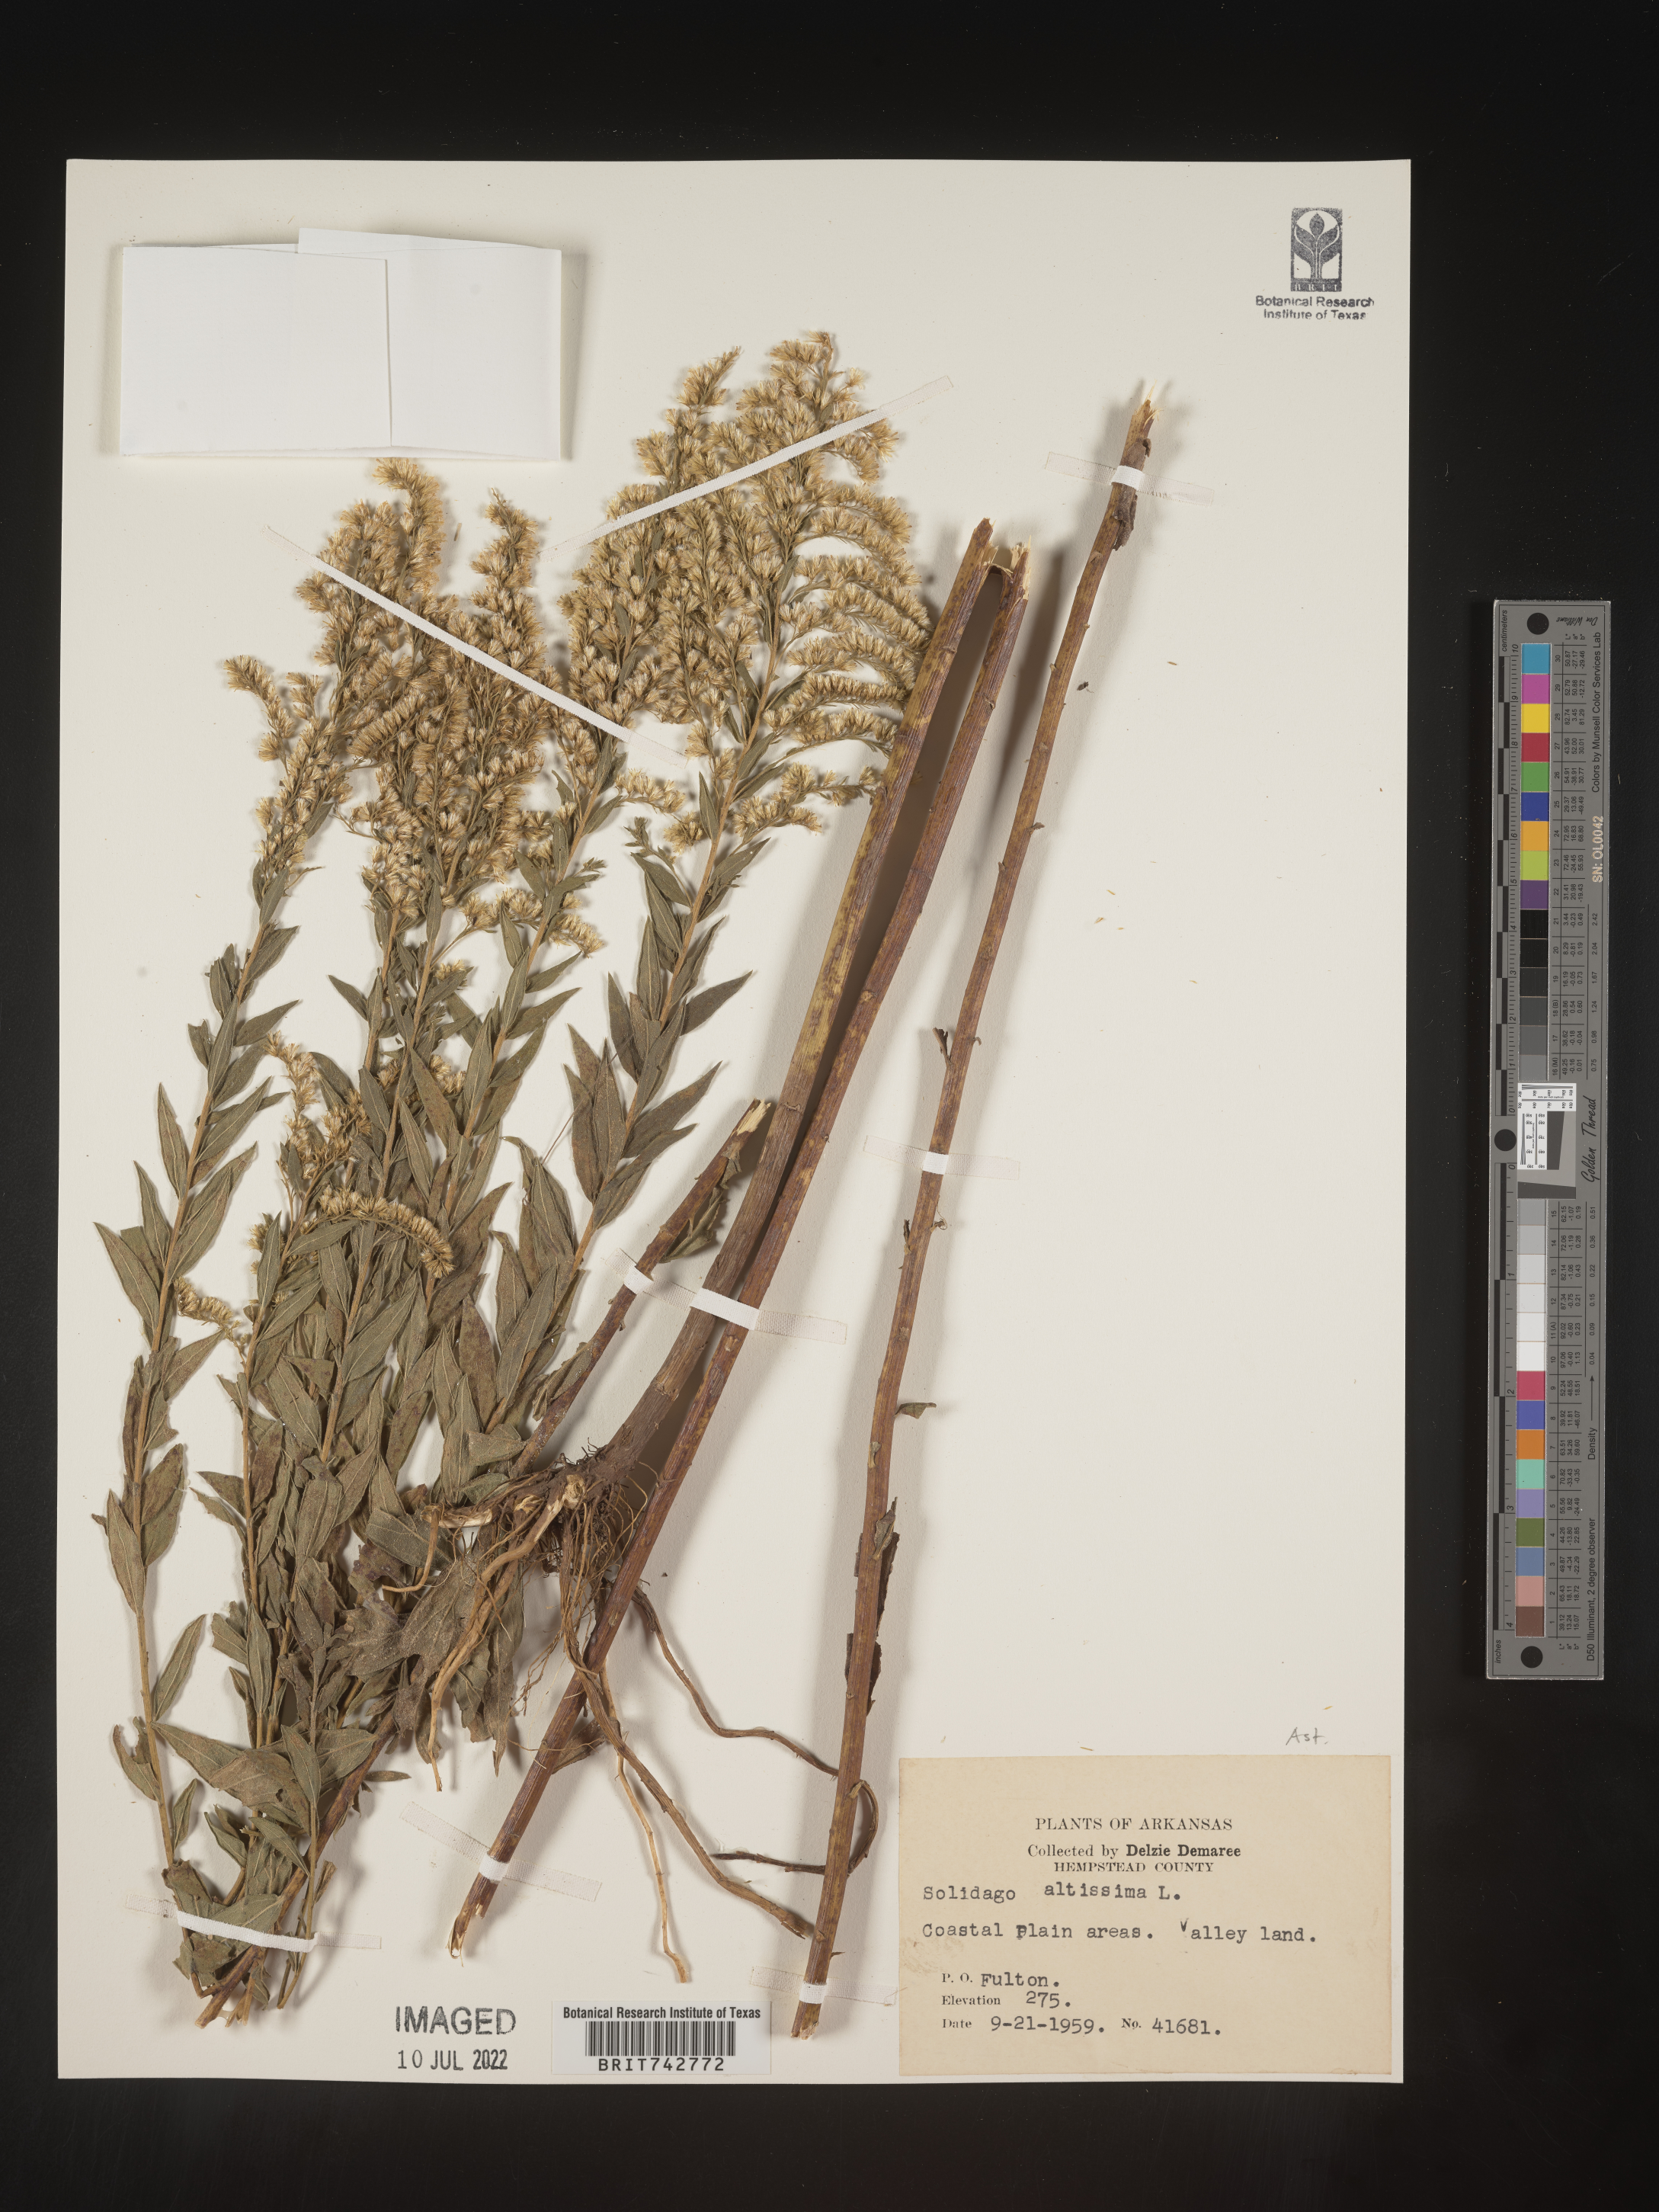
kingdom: Plantae
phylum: Tracheophyta
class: Magnoliopsida
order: Asterales
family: Asteraceae
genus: Solidago
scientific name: Solidago altissima
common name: Late goldenrod
